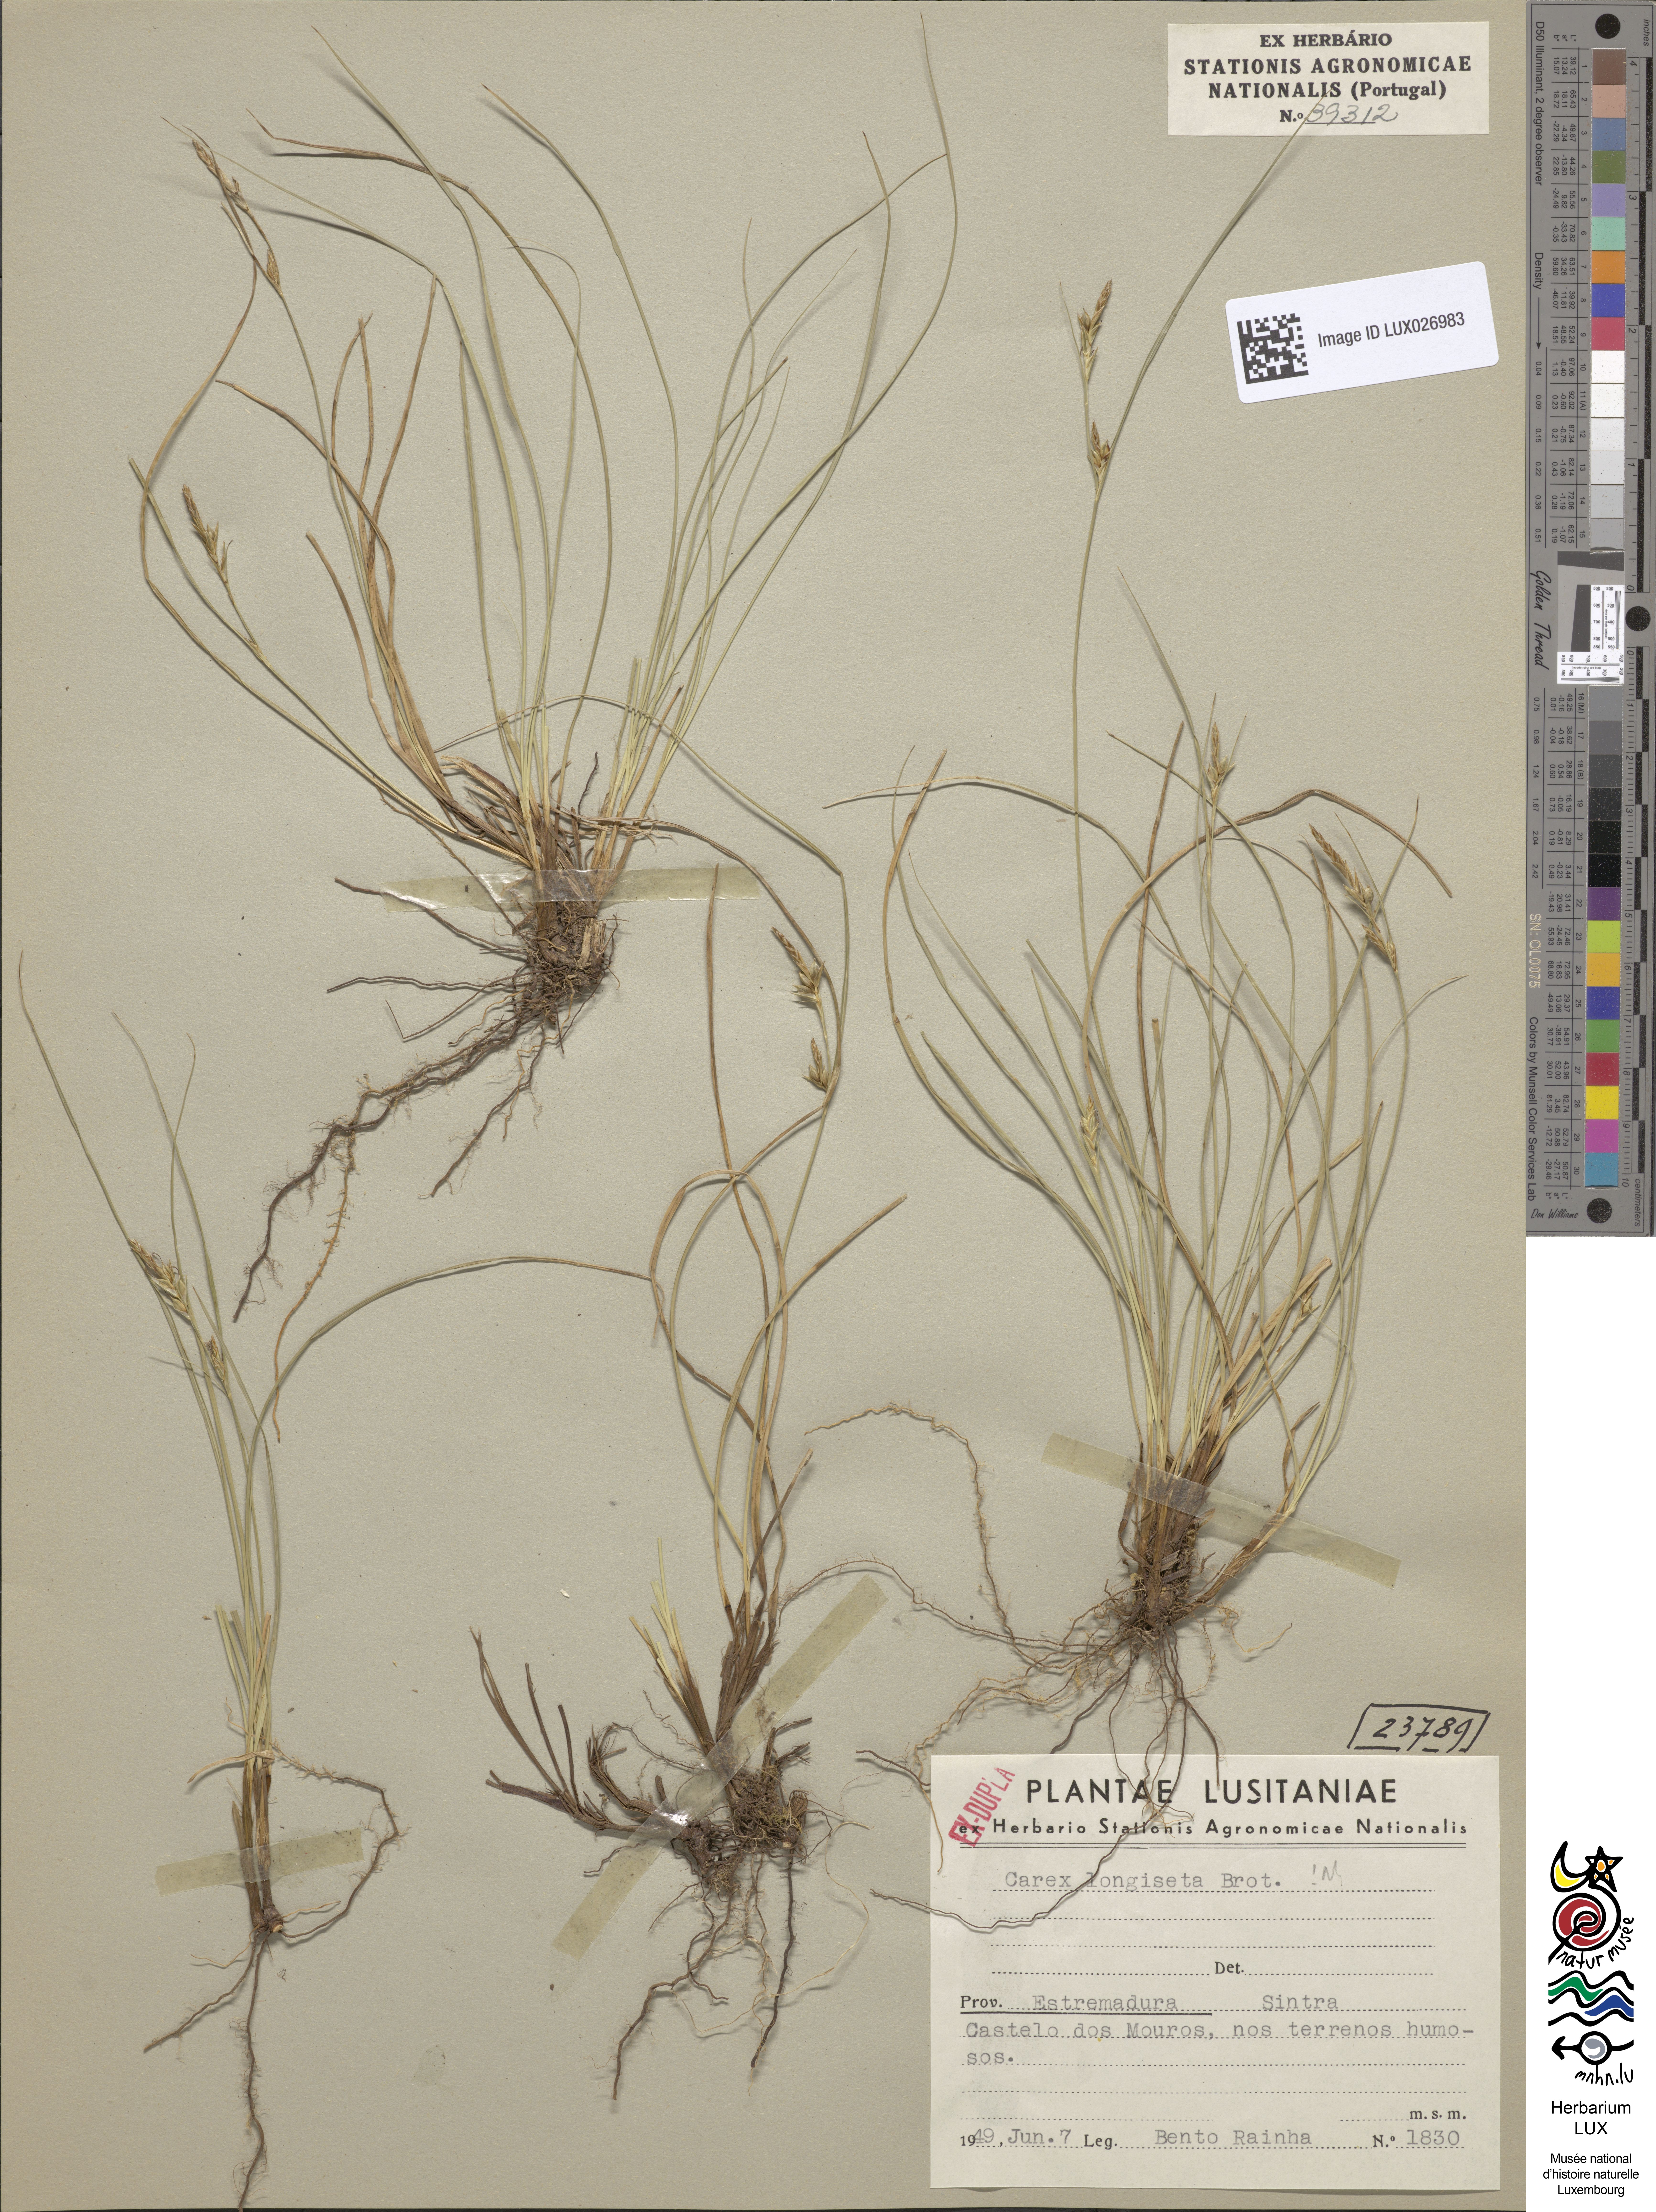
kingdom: Plantae
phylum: Tracheophyta
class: Liliopsida
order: Poales
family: Cyperaceae
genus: Carex
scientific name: Carex distachya
